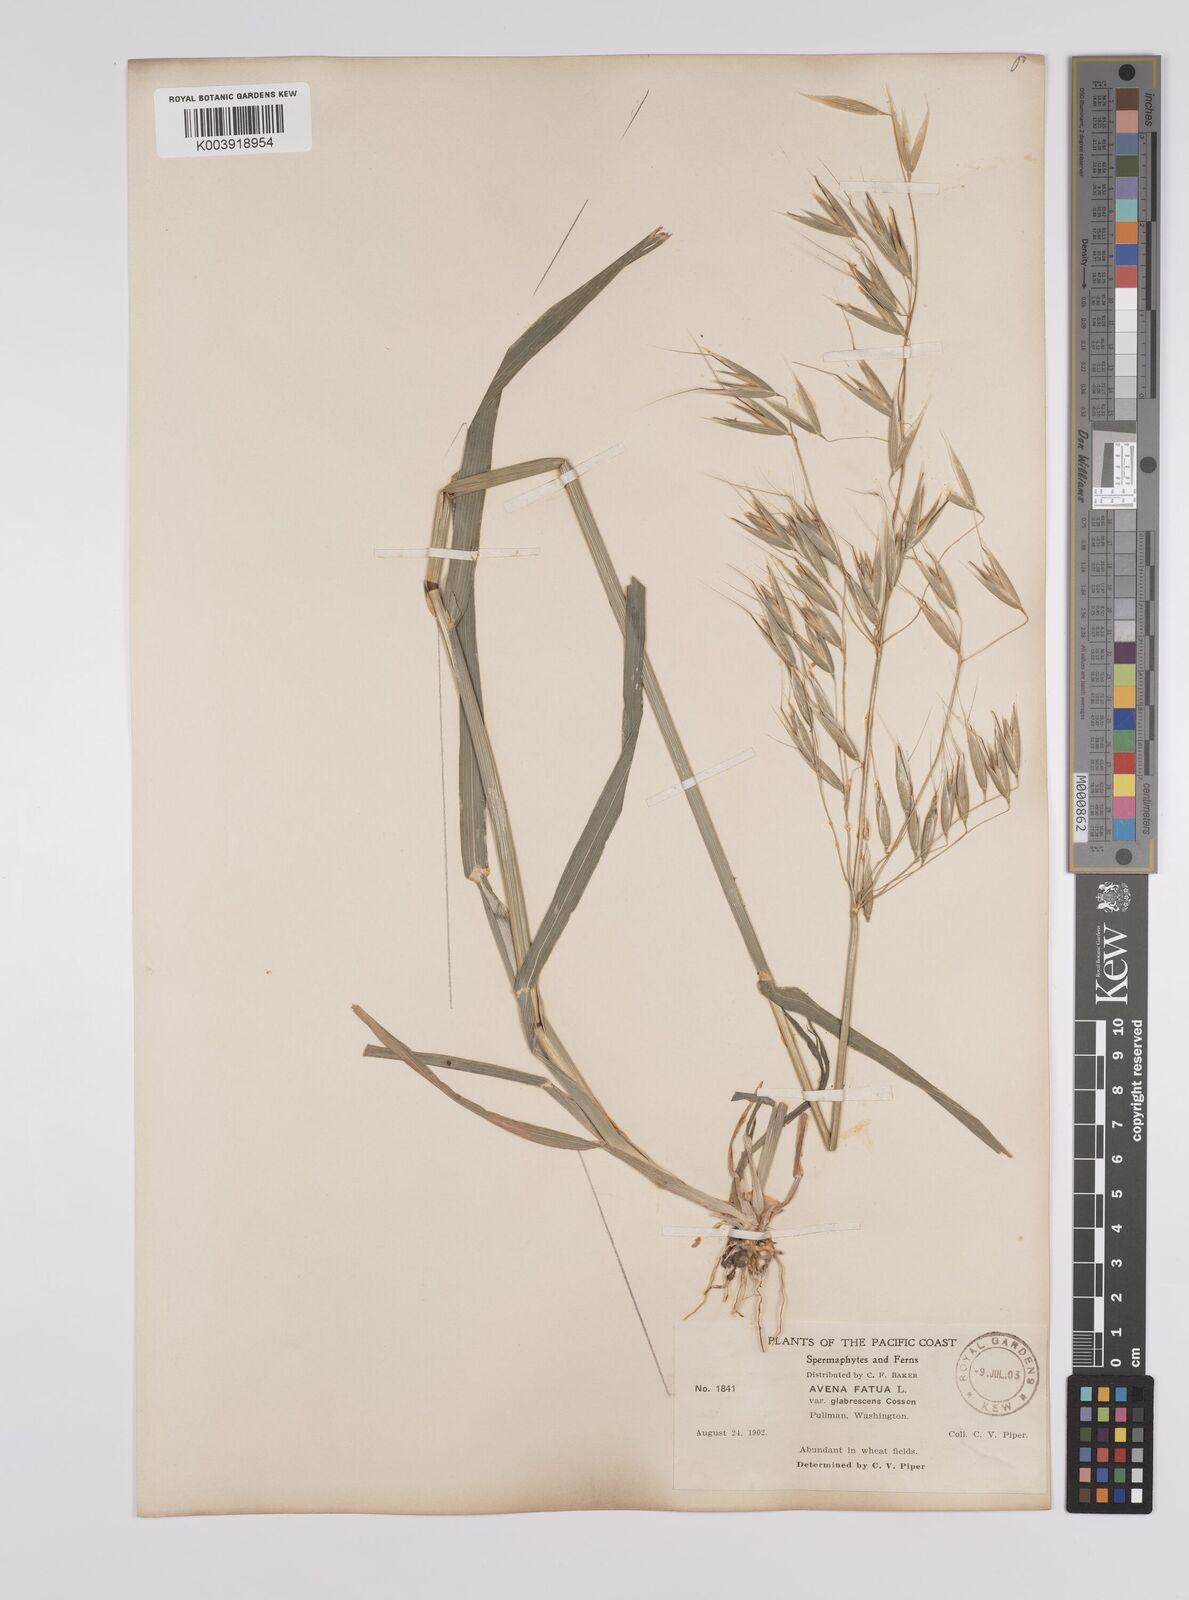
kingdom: Plantae
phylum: Tracheophyta
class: Liliopsida
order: Poales
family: Poaceae
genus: Avena
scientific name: Avena fatua
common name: Wild oat
